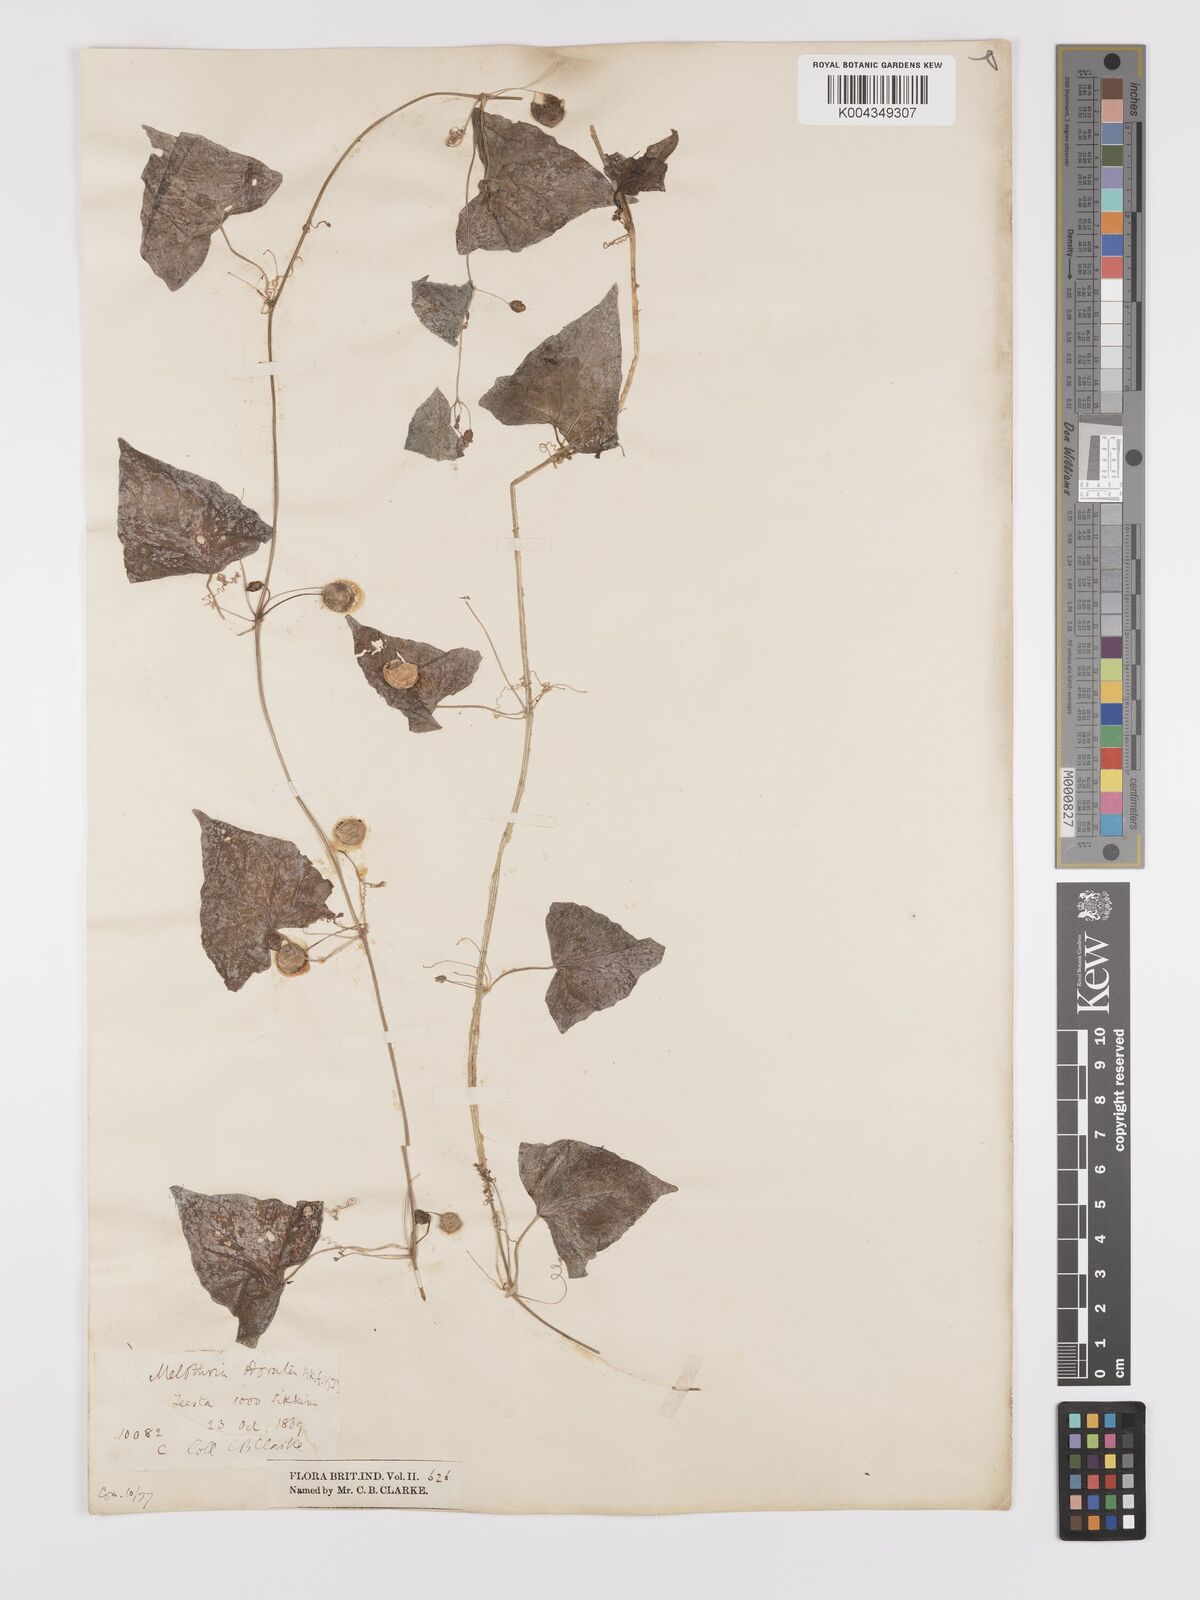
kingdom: Plantae
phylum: Tracheophyta
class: Magnoliopsida
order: Cucurbitales
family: Cucurbitaceae
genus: Zehneria
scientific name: Zehneria odorata
